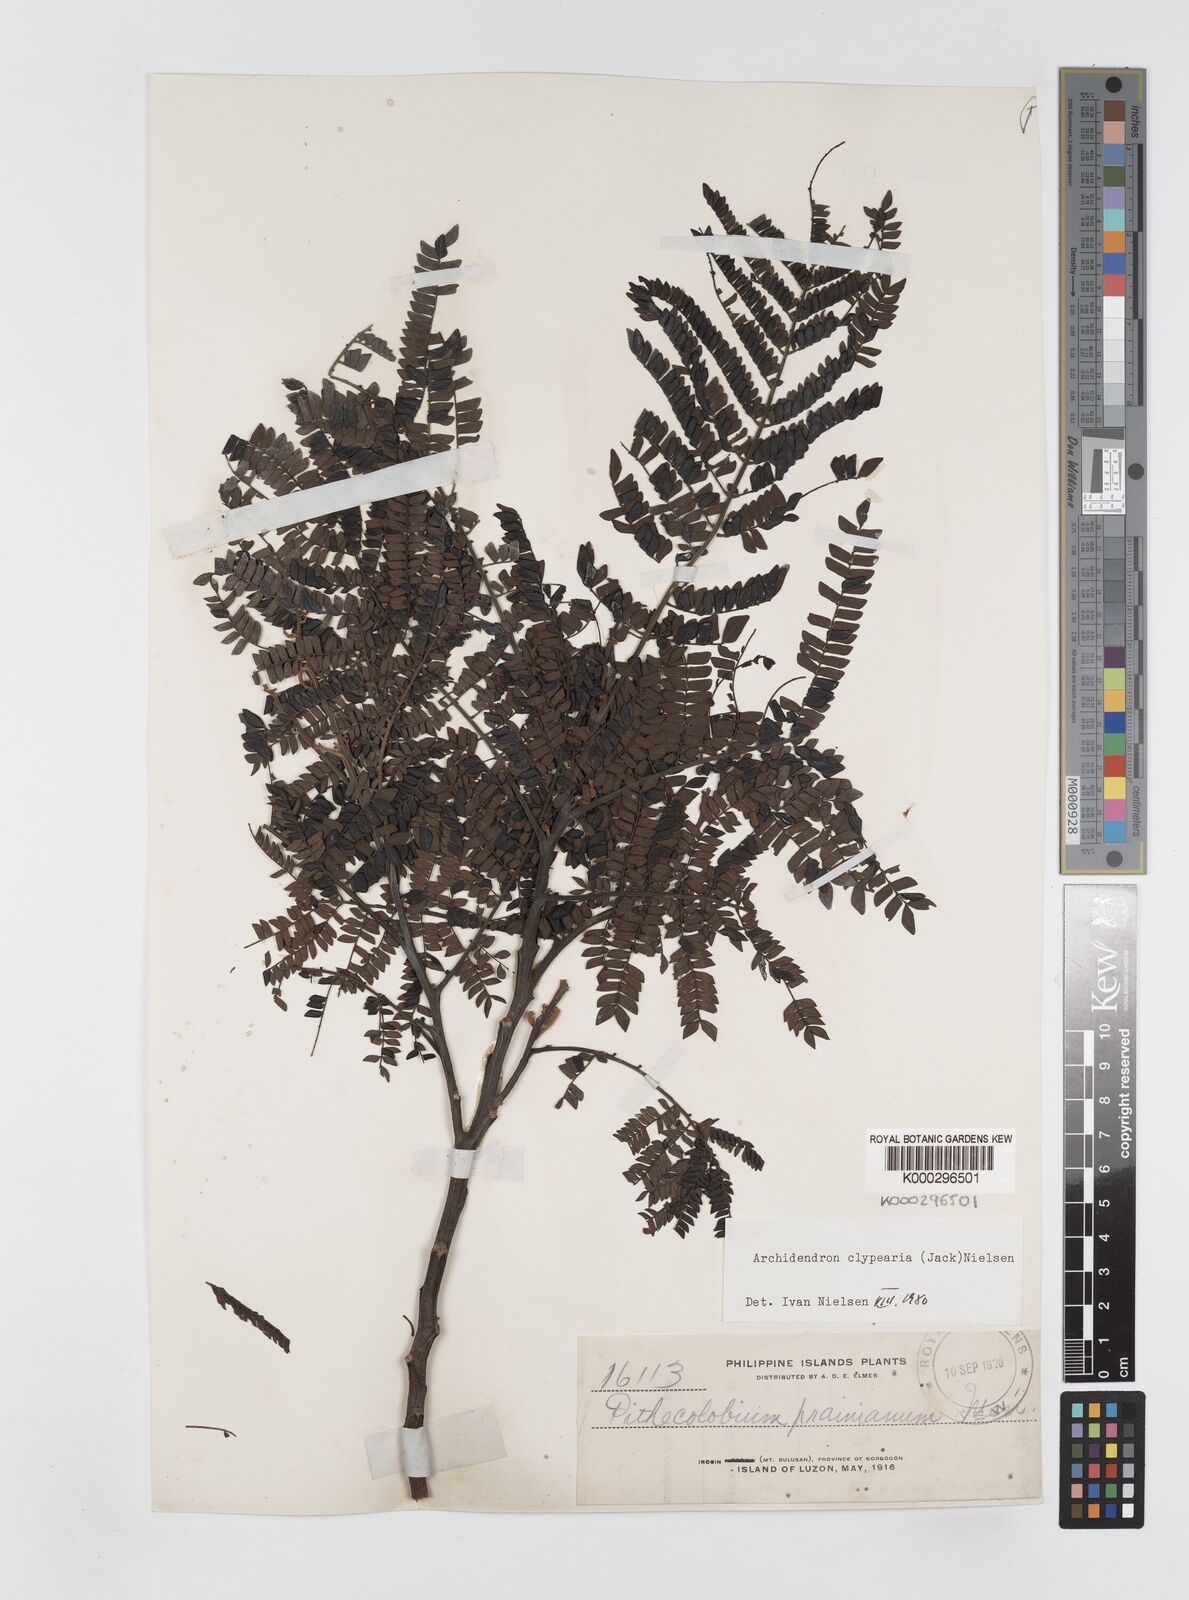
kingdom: Plantae
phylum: Tracheophyta
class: Magnoliopsida
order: Fabales
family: Fabaceae
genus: Archidendron
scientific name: Archidendron clypearia
